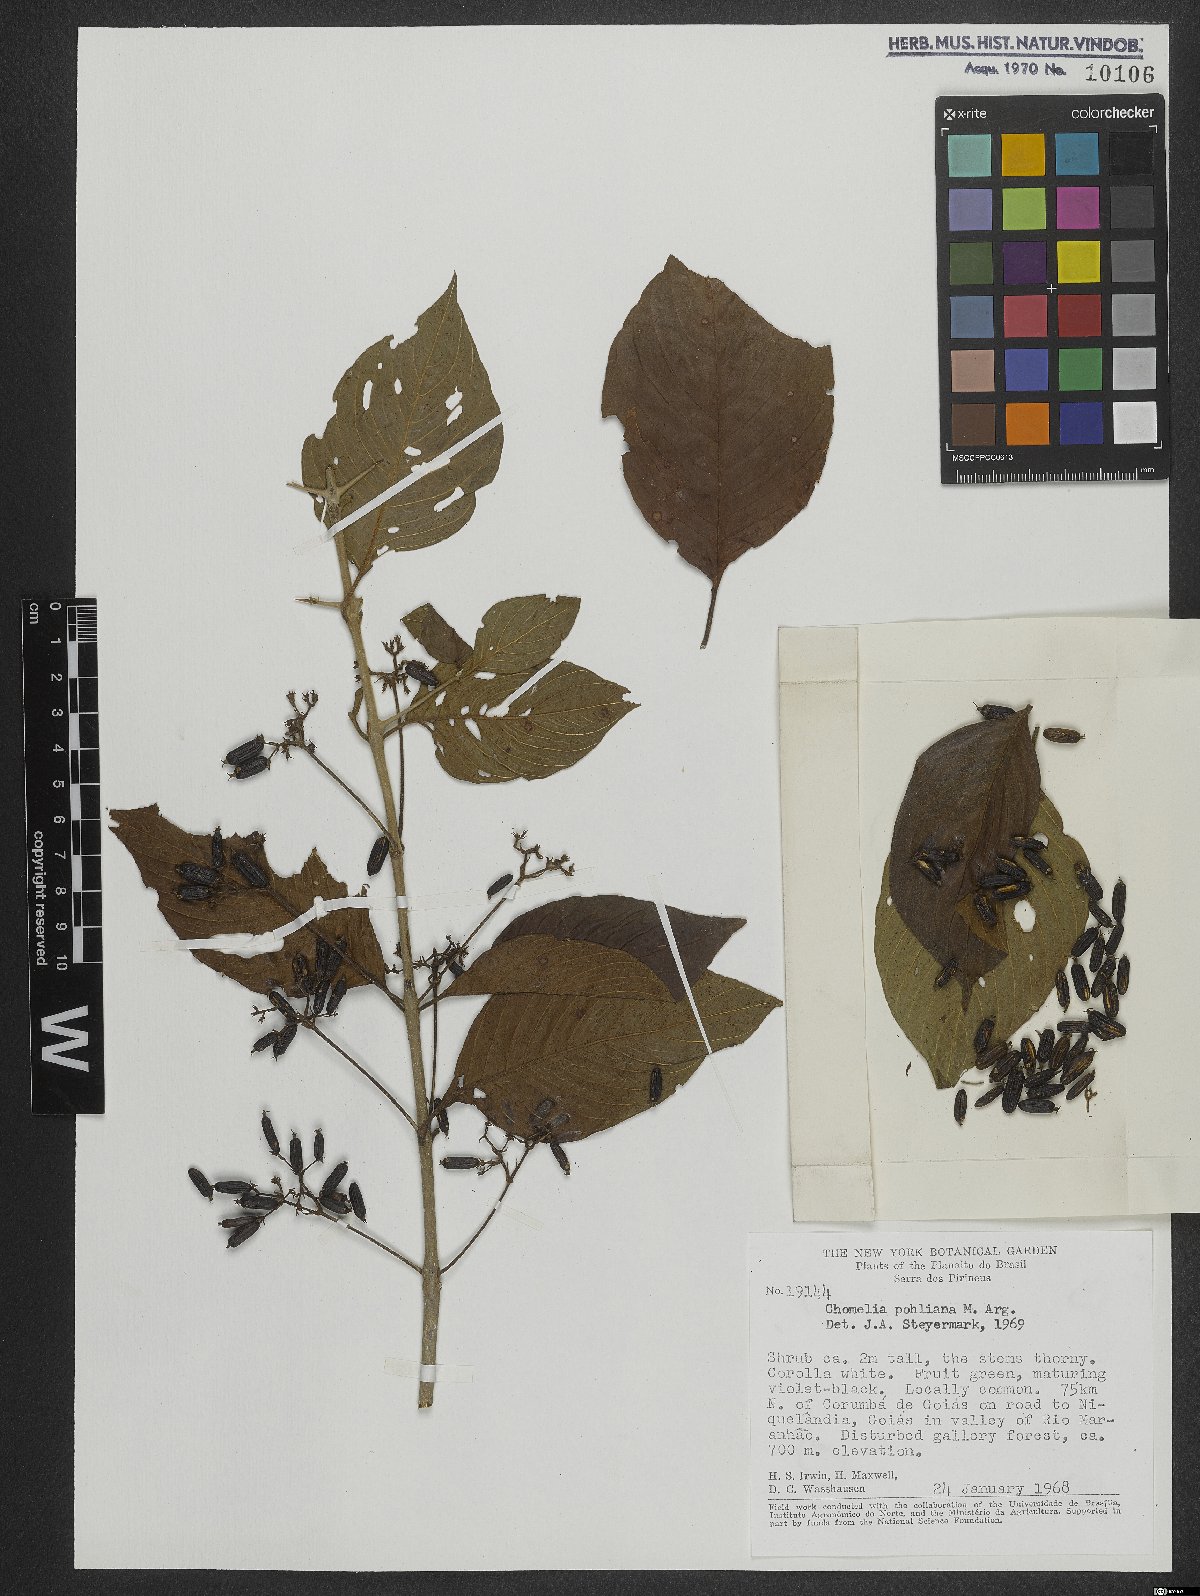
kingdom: Plantae
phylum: Tracheophyta
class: Magnoliopsida
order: Gentianales
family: Rubiaceae
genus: Chomelia
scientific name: Chomelia pohliana
